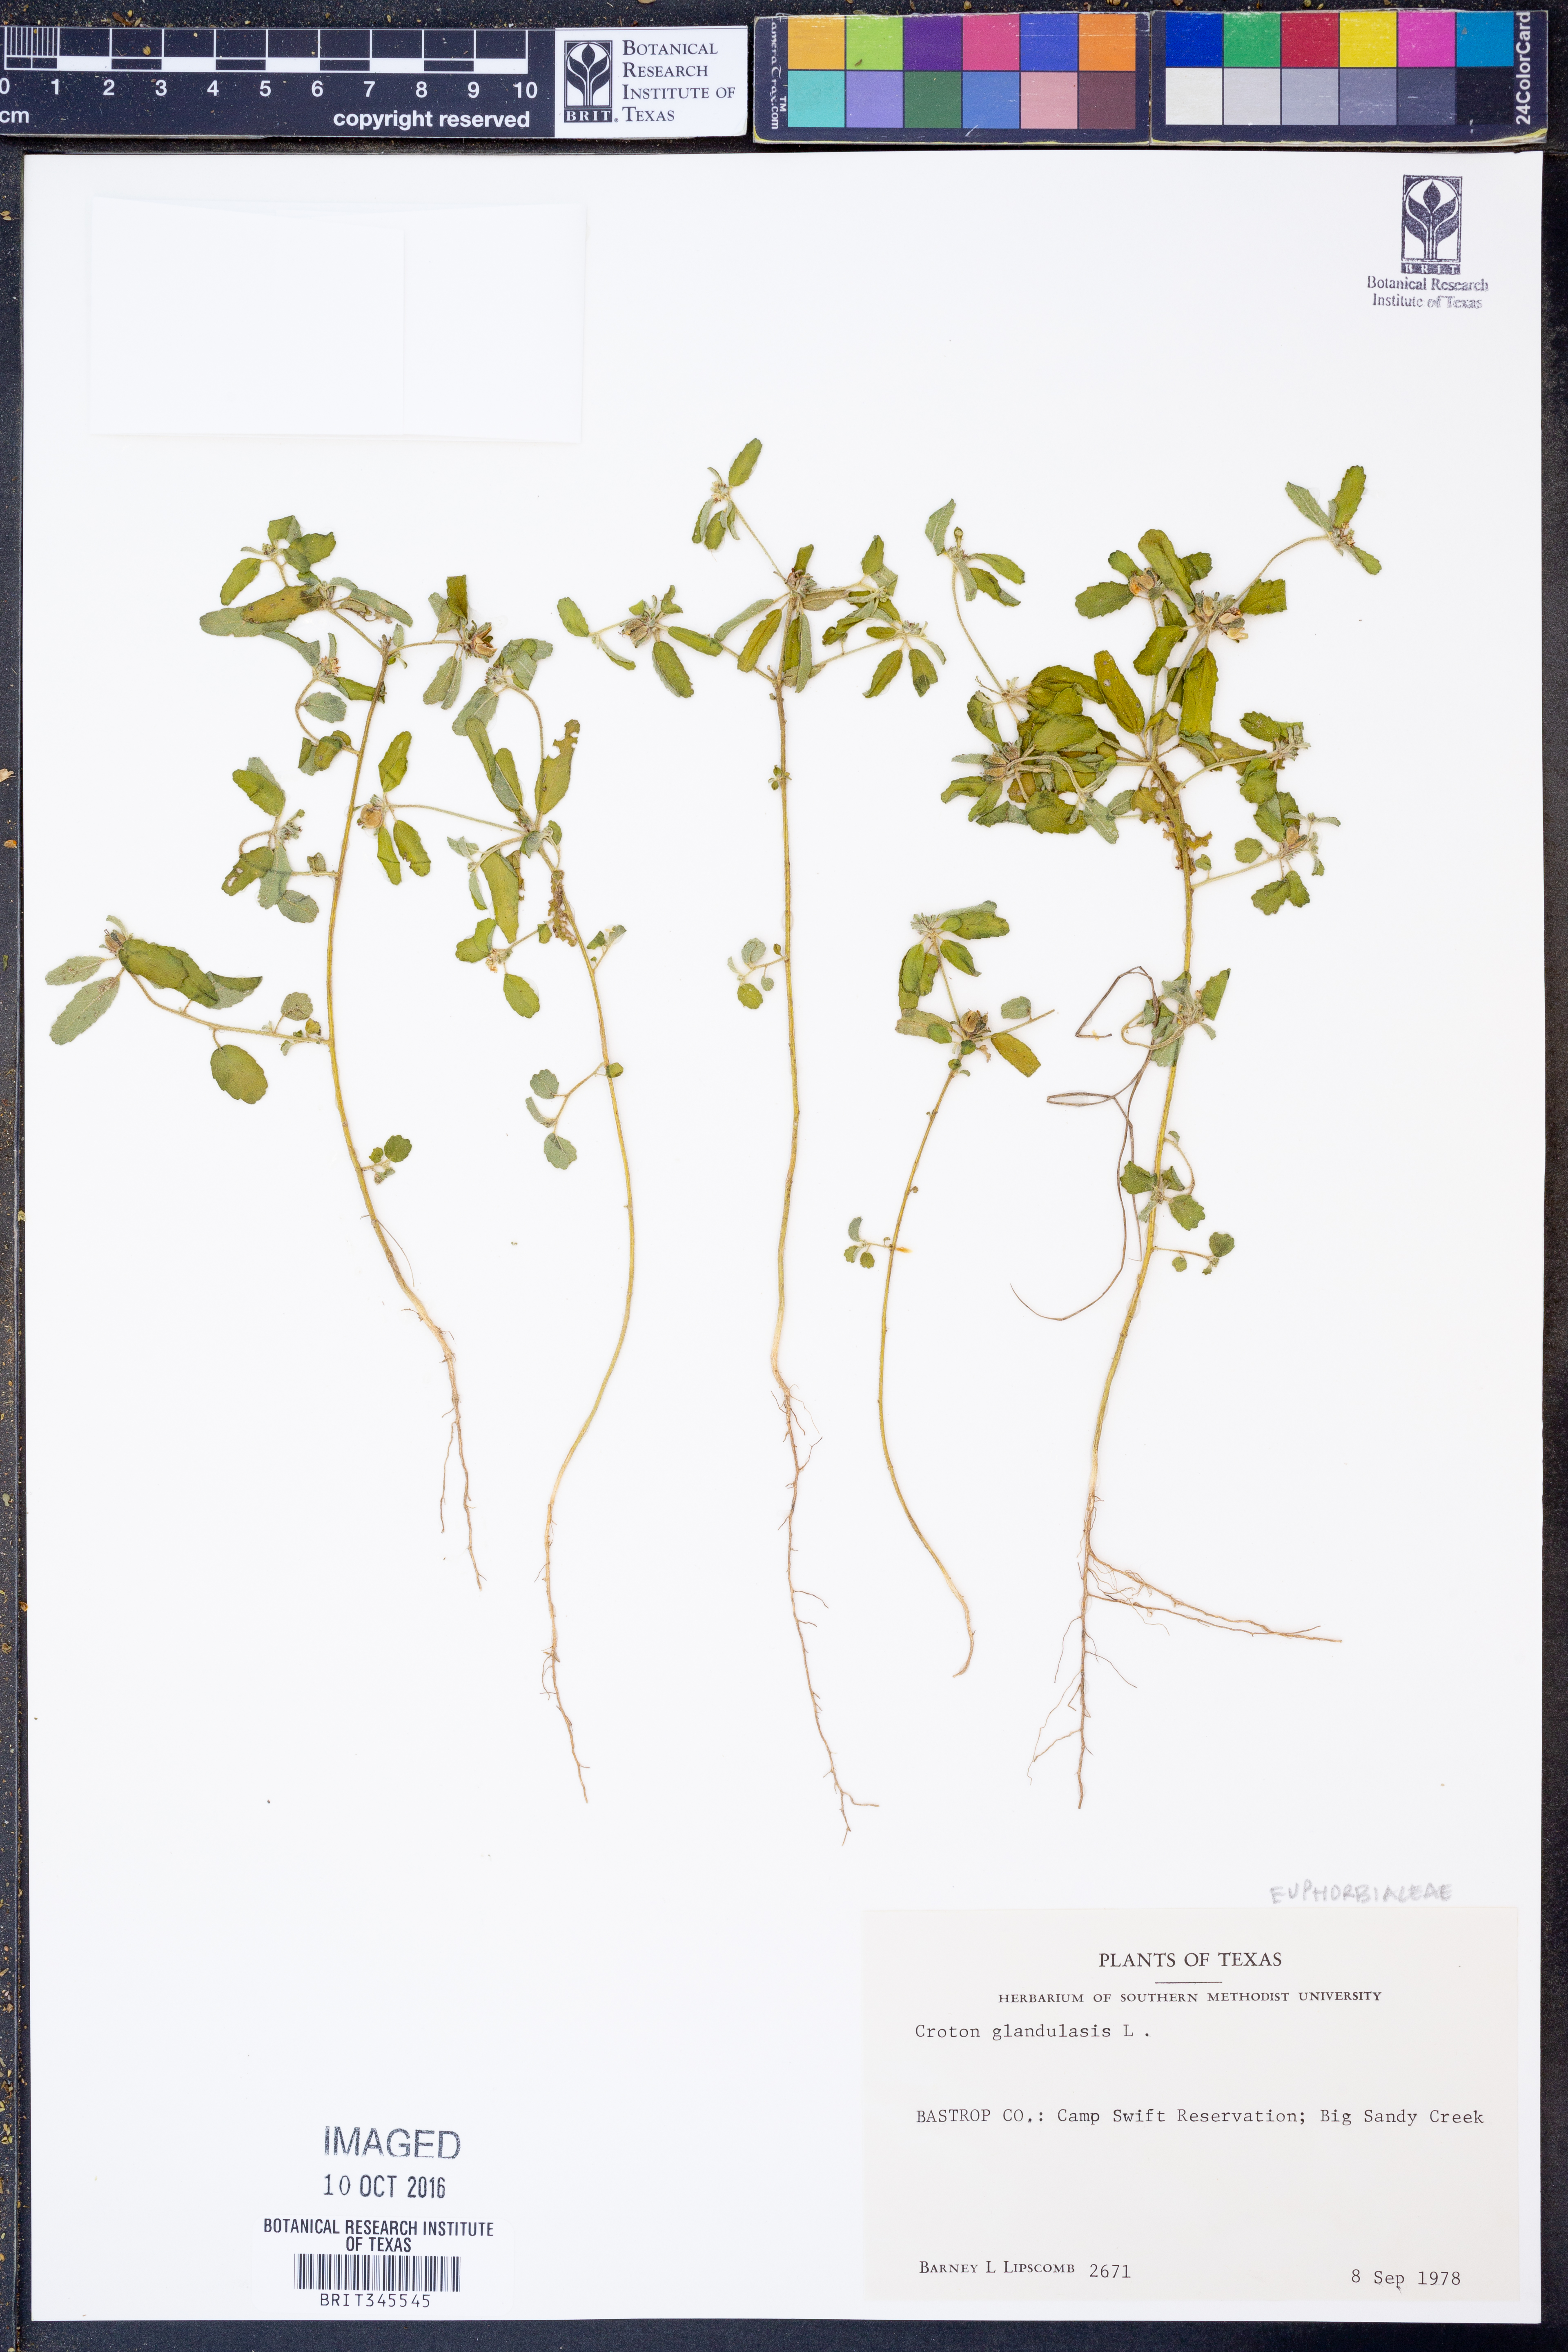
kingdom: Plantae
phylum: Tracheophyta
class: Magnoliopsida
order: Malpighiales
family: Euphorbiaceae
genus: Croton
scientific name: Croton glandulosus
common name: Tropic croton
